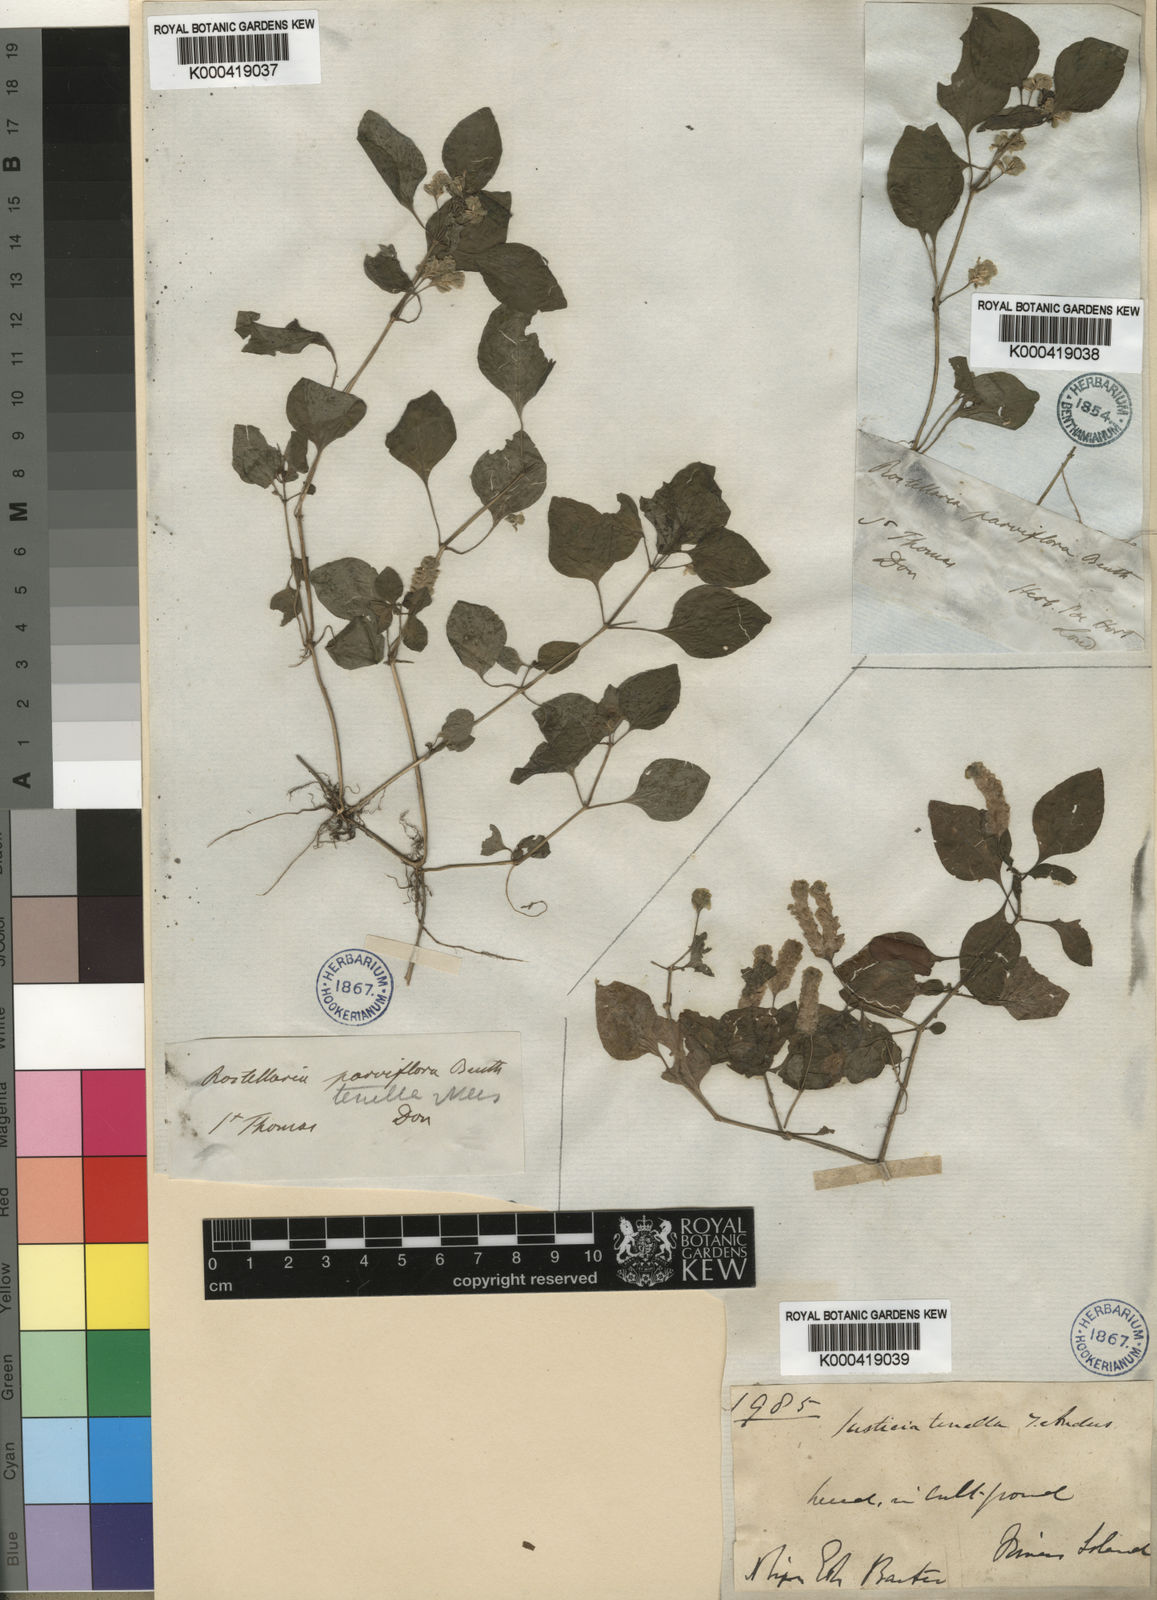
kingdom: Plantae
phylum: Tracheophyta
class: Magnoliopsida
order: Lamiales
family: Acanthaceae
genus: Anisostachya
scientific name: Anisostachya tenella
